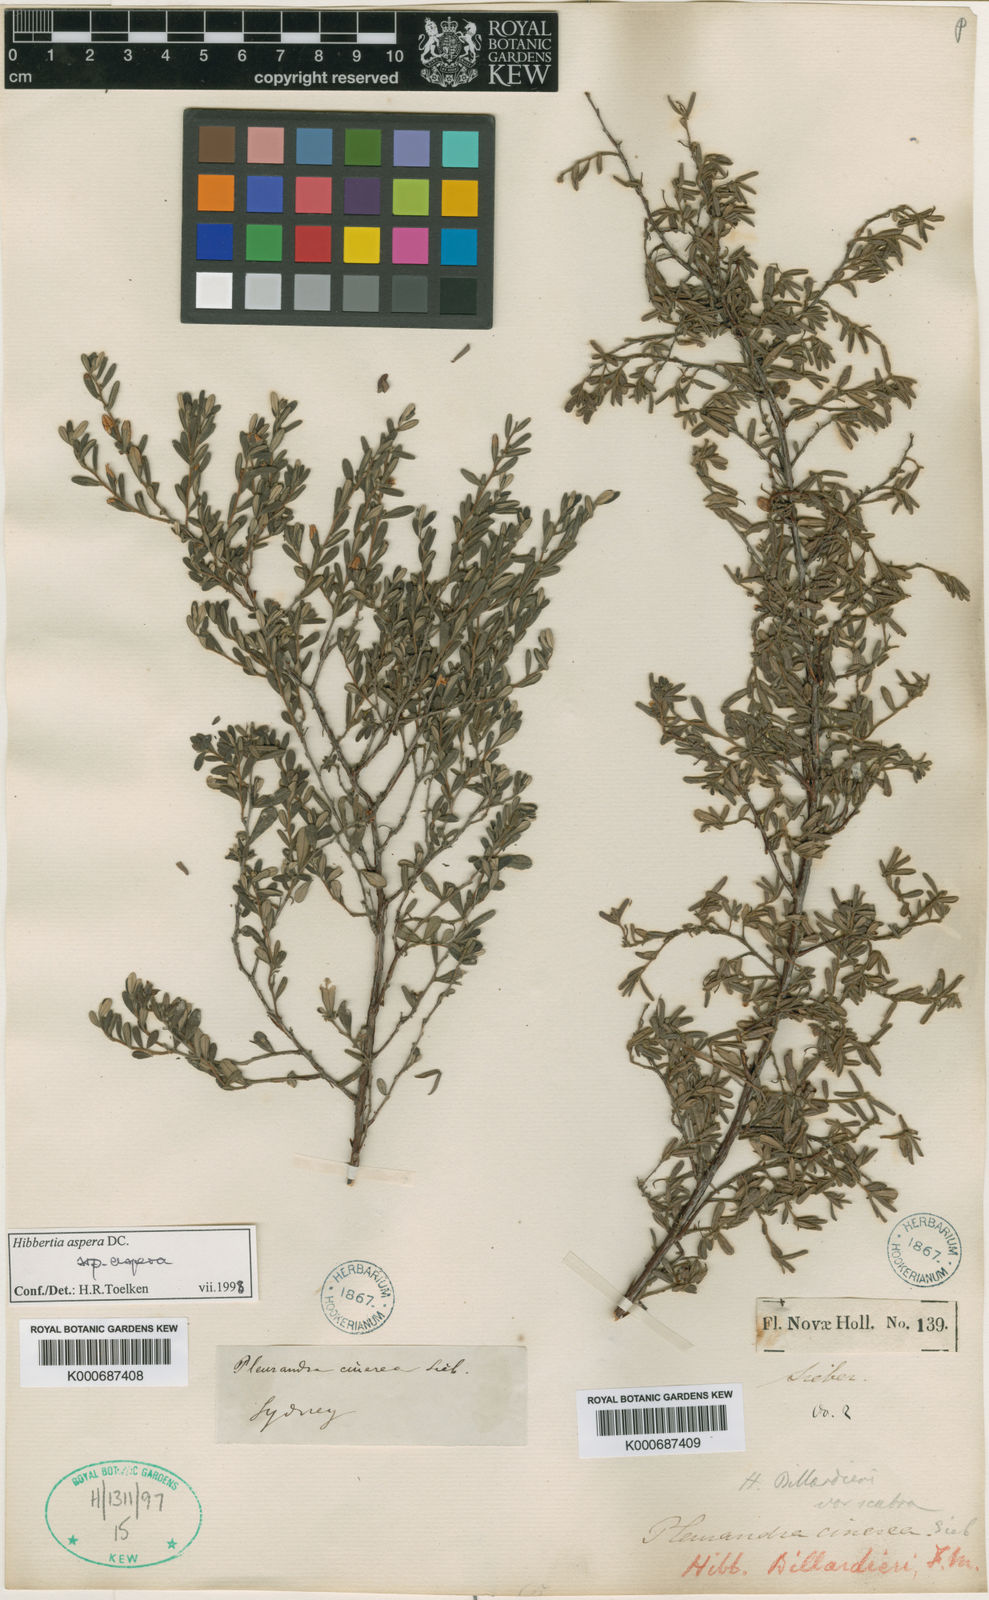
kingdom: Plantae
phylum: Tracheophyta
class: Magnoliopsida
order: Dilleniales
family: Dilleniaceae
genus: Hibbertia
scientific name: Hibbertia aspera
